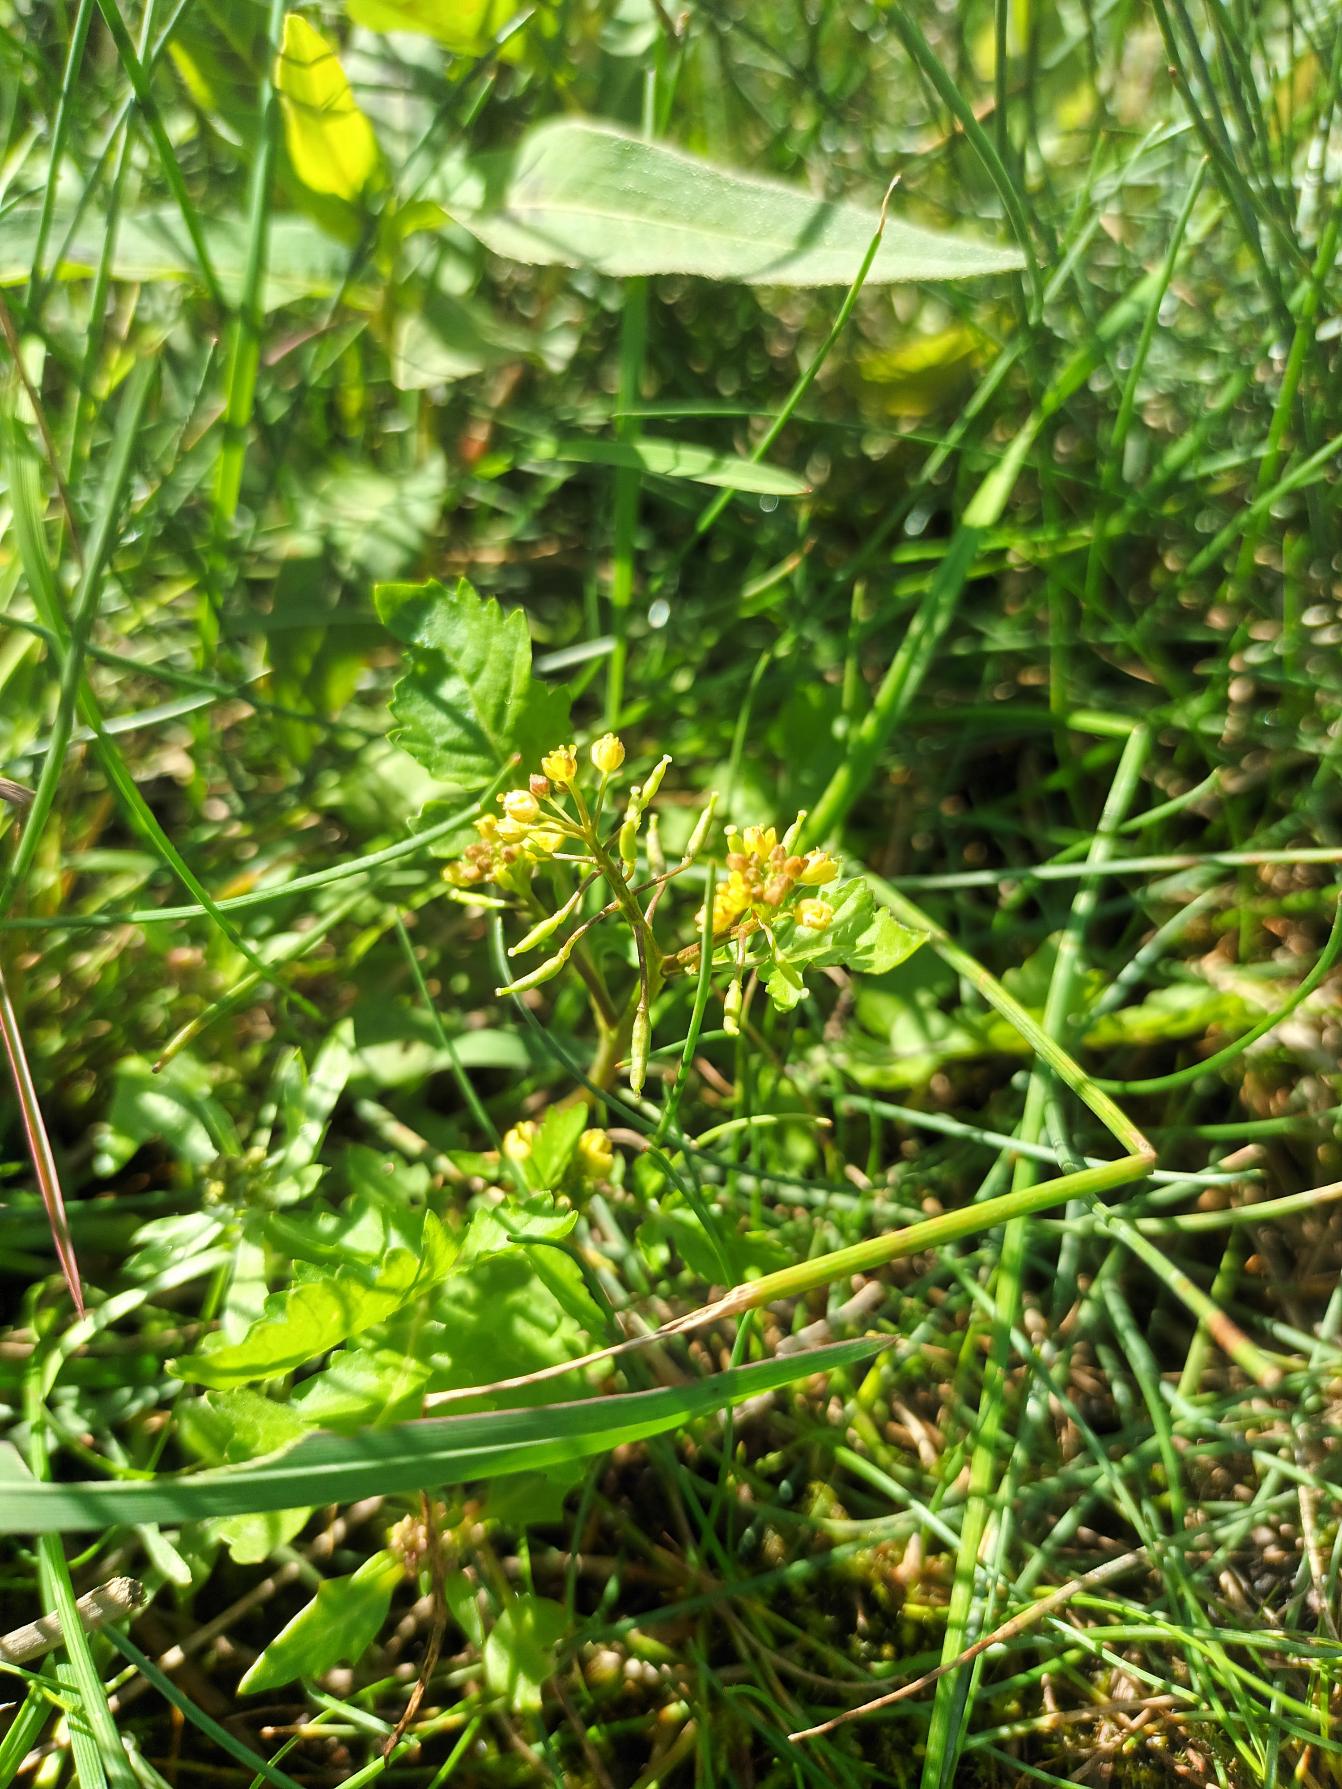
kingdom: Plantae
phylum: Tracheophyta
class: Magnoliopsida
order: Brassicales
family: Brassicaceae
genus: Rorippa
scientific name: Rorippa palustris
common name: Kær-guldkarse
